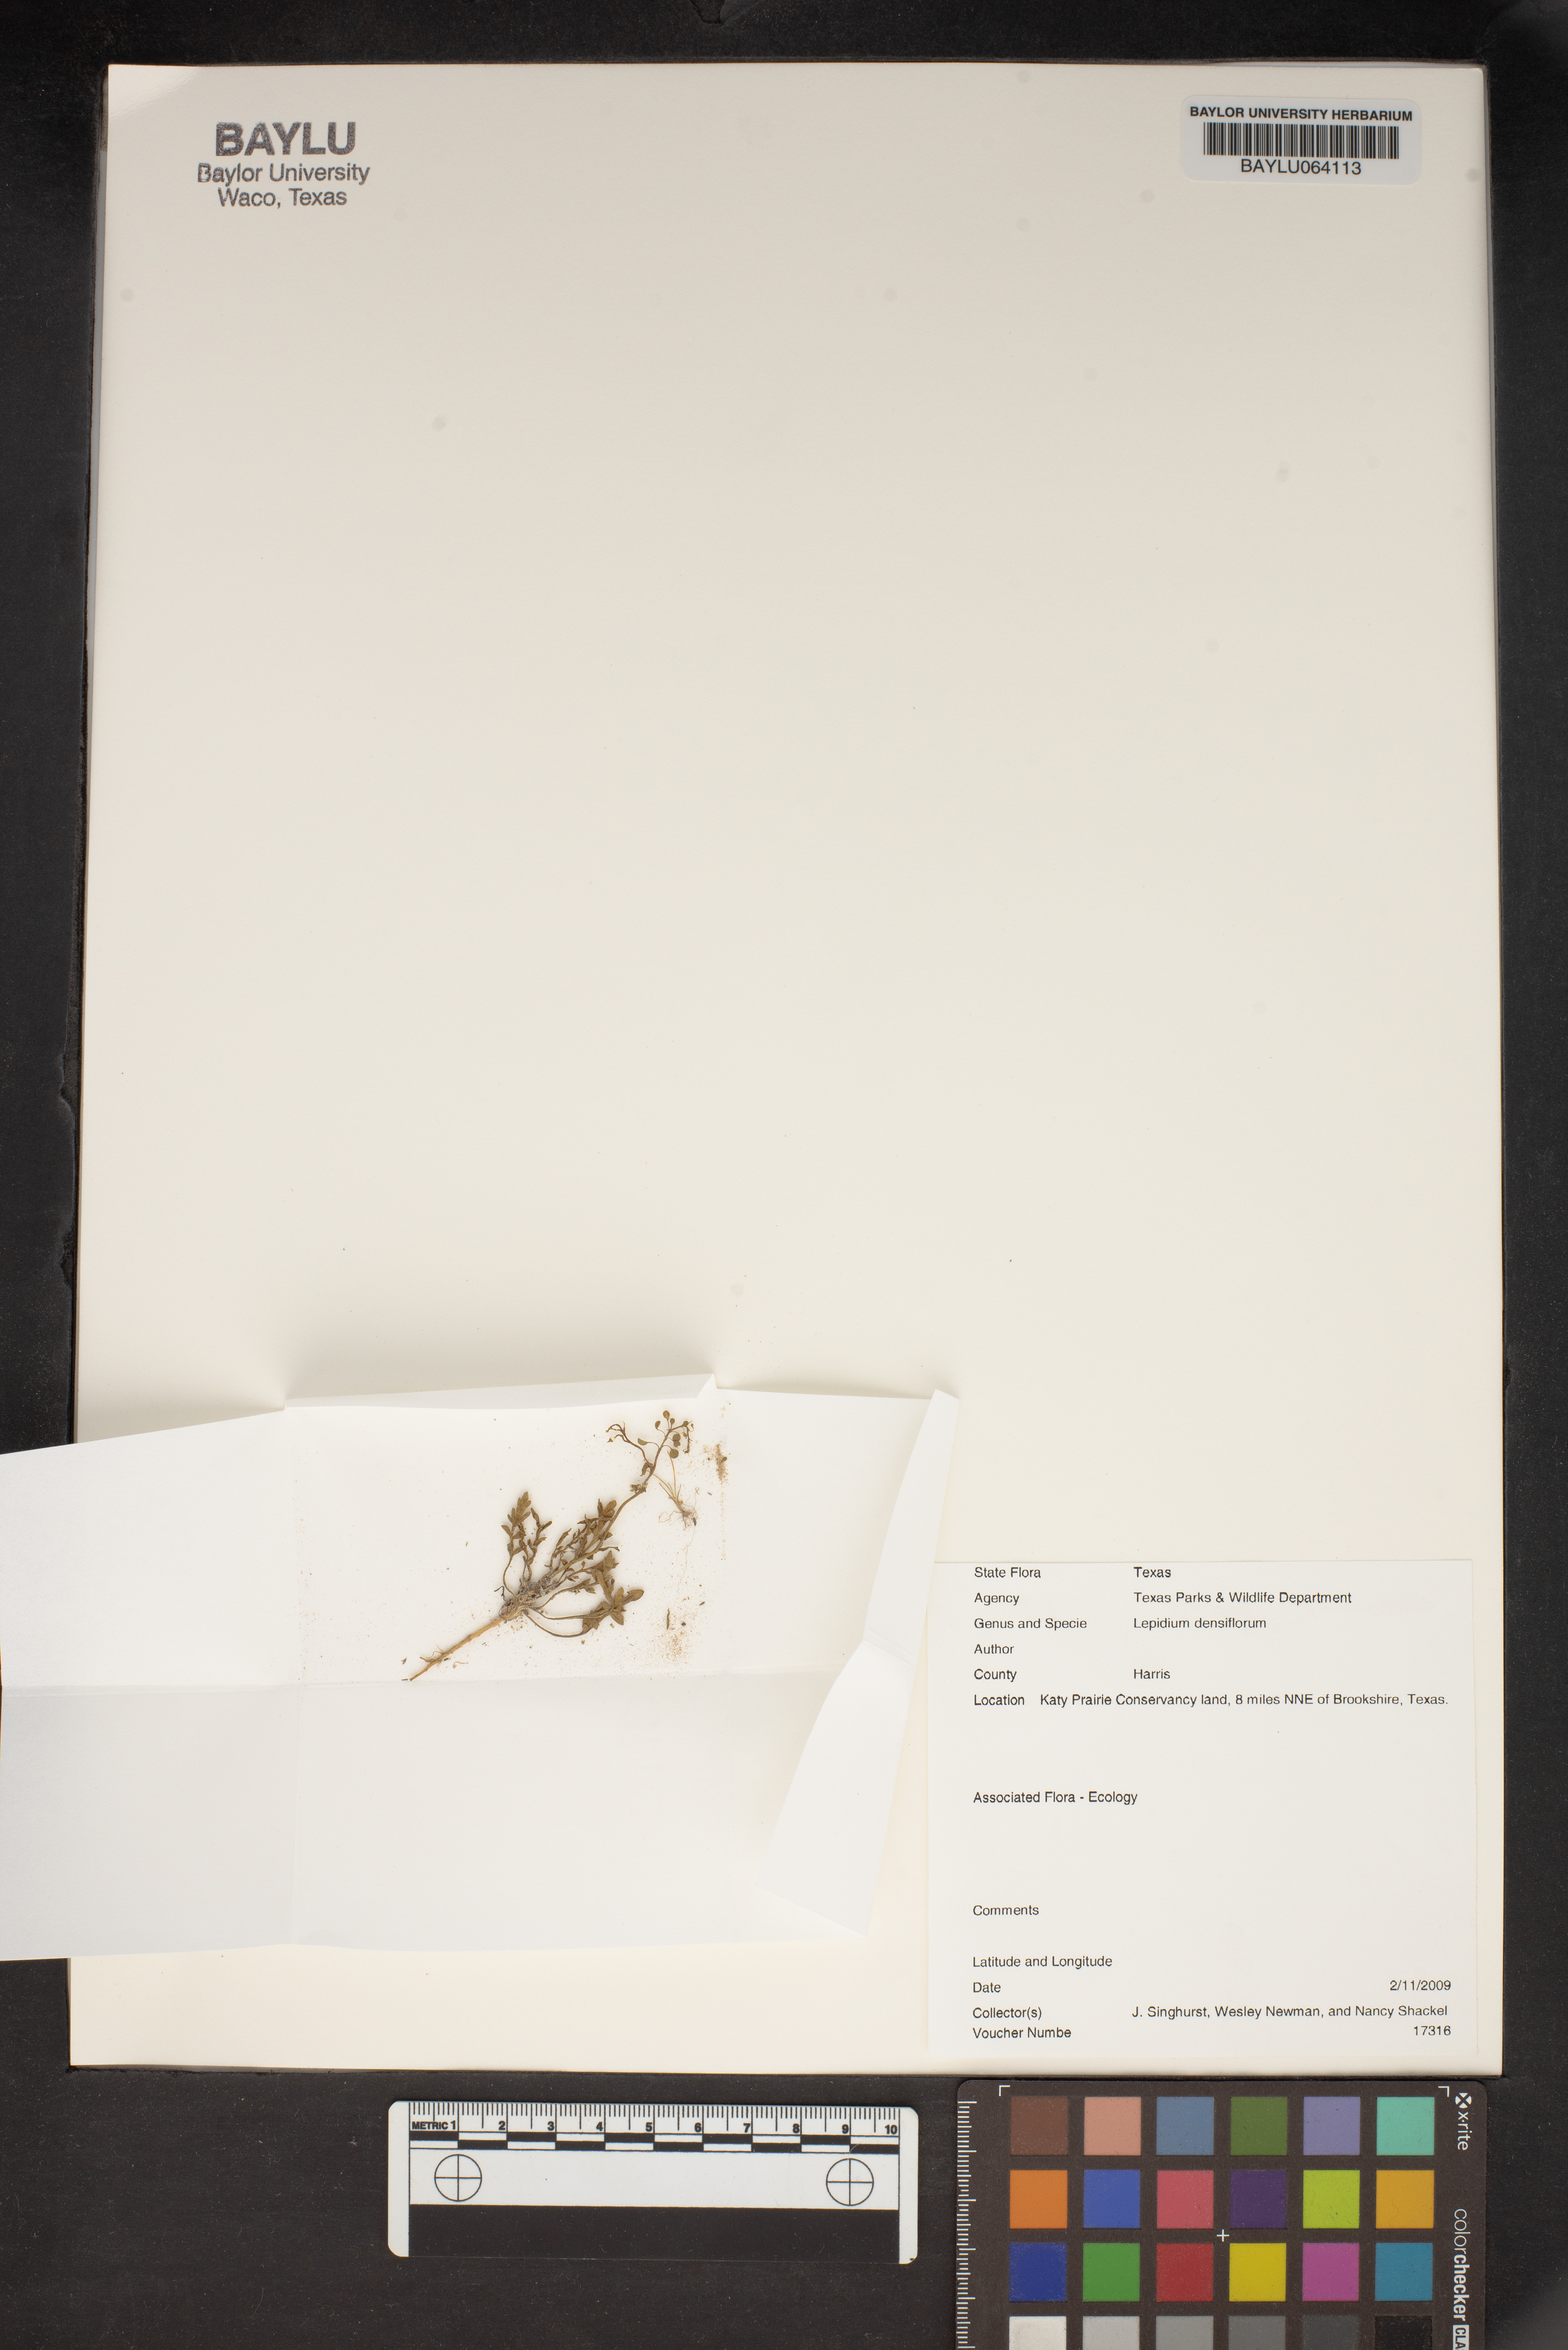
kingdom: Plantae
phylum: Tracheophyta
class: Magnoliopsida
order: Brassicales
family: Brassicaceae
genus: Lepidium
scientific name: Lepidium densiflorum
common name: Miner's pepperwort
